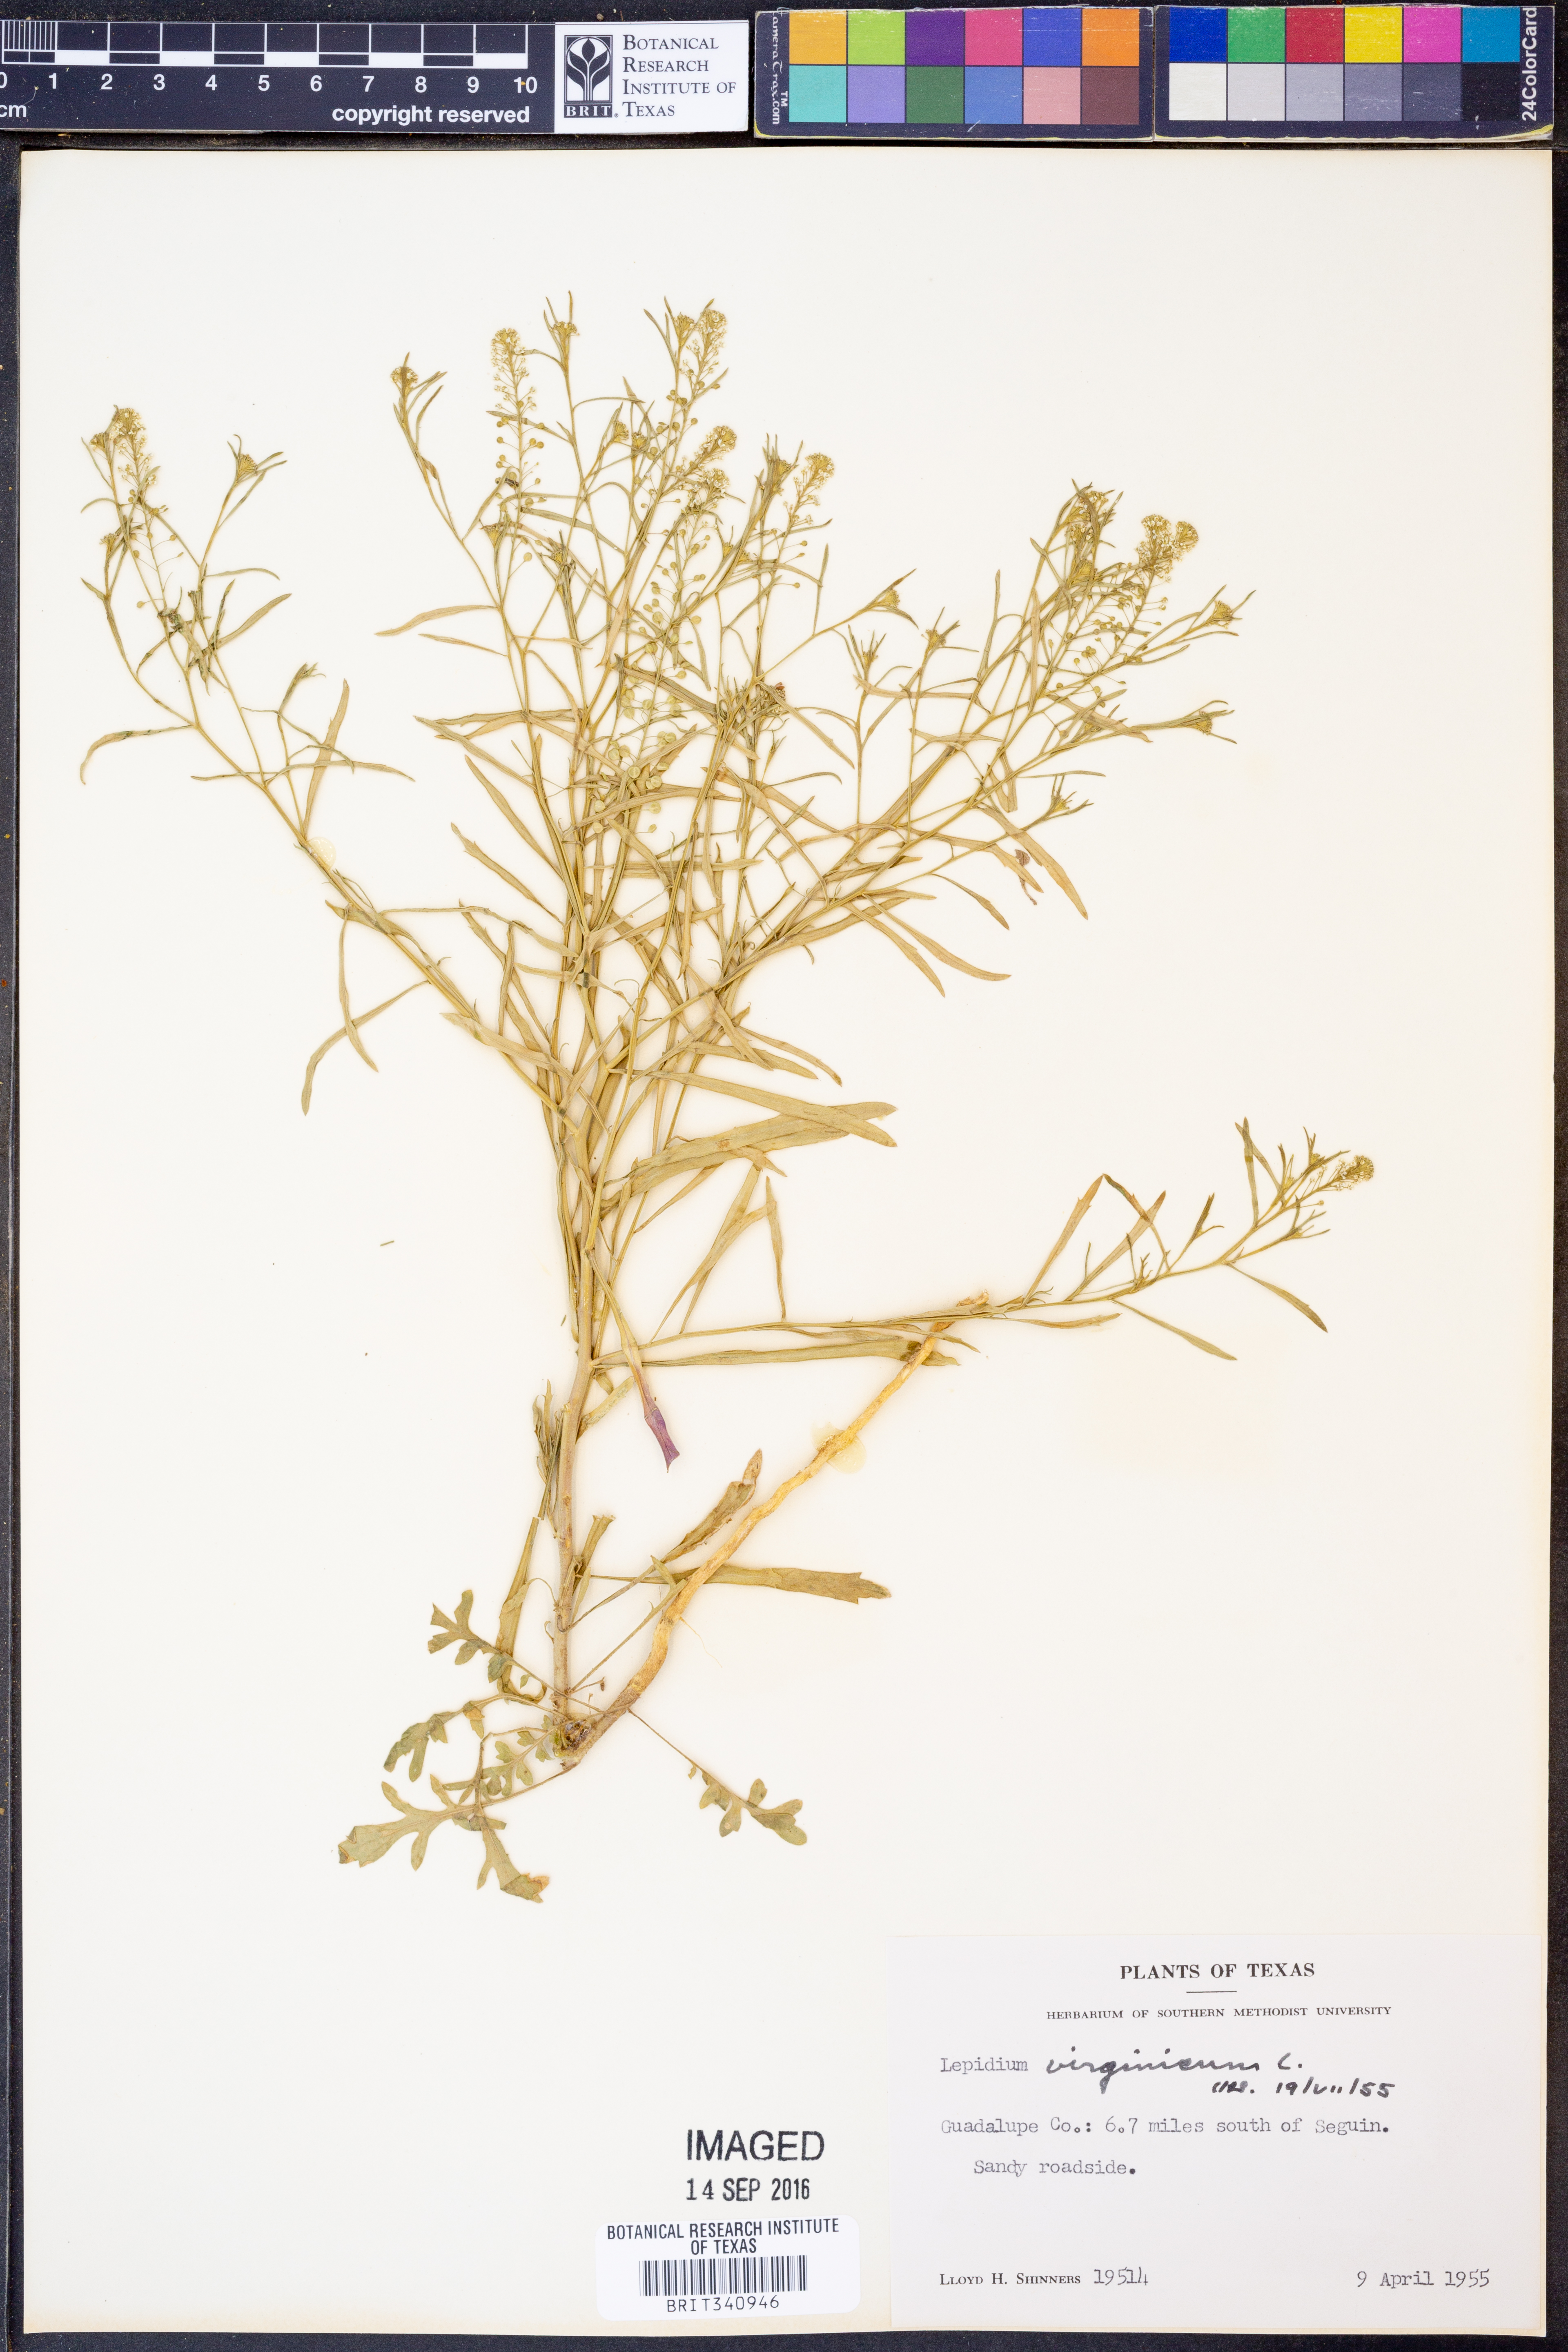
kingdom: Plantae
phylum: Tracheophyta
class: Magnoliopsida
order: Brassicales
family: Brassicaceae
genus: Lepidium
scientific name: Lepidium virginicum
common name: Least pepperwort
